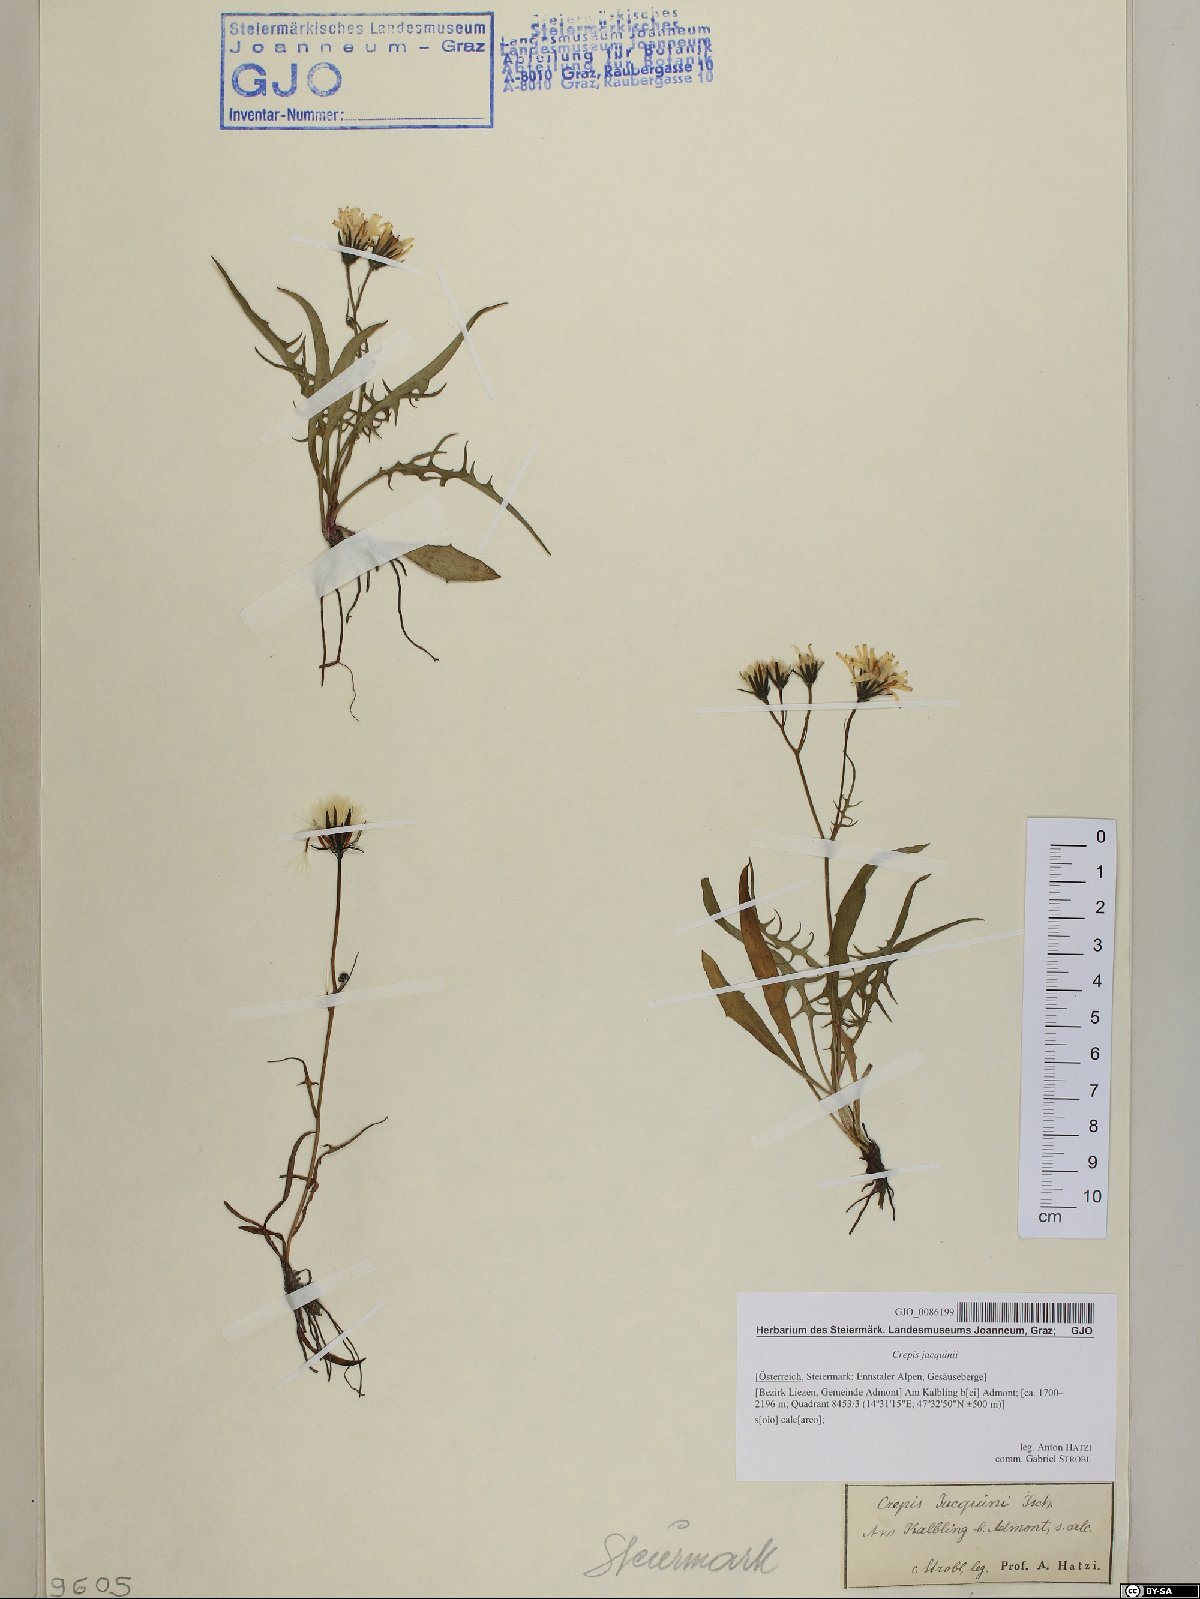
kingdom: Plantae
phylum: Tracheophyta
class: Magnoliopsida
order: Asterales
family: Asteraceae
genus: Crepis
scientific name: Crepis jacquinii
